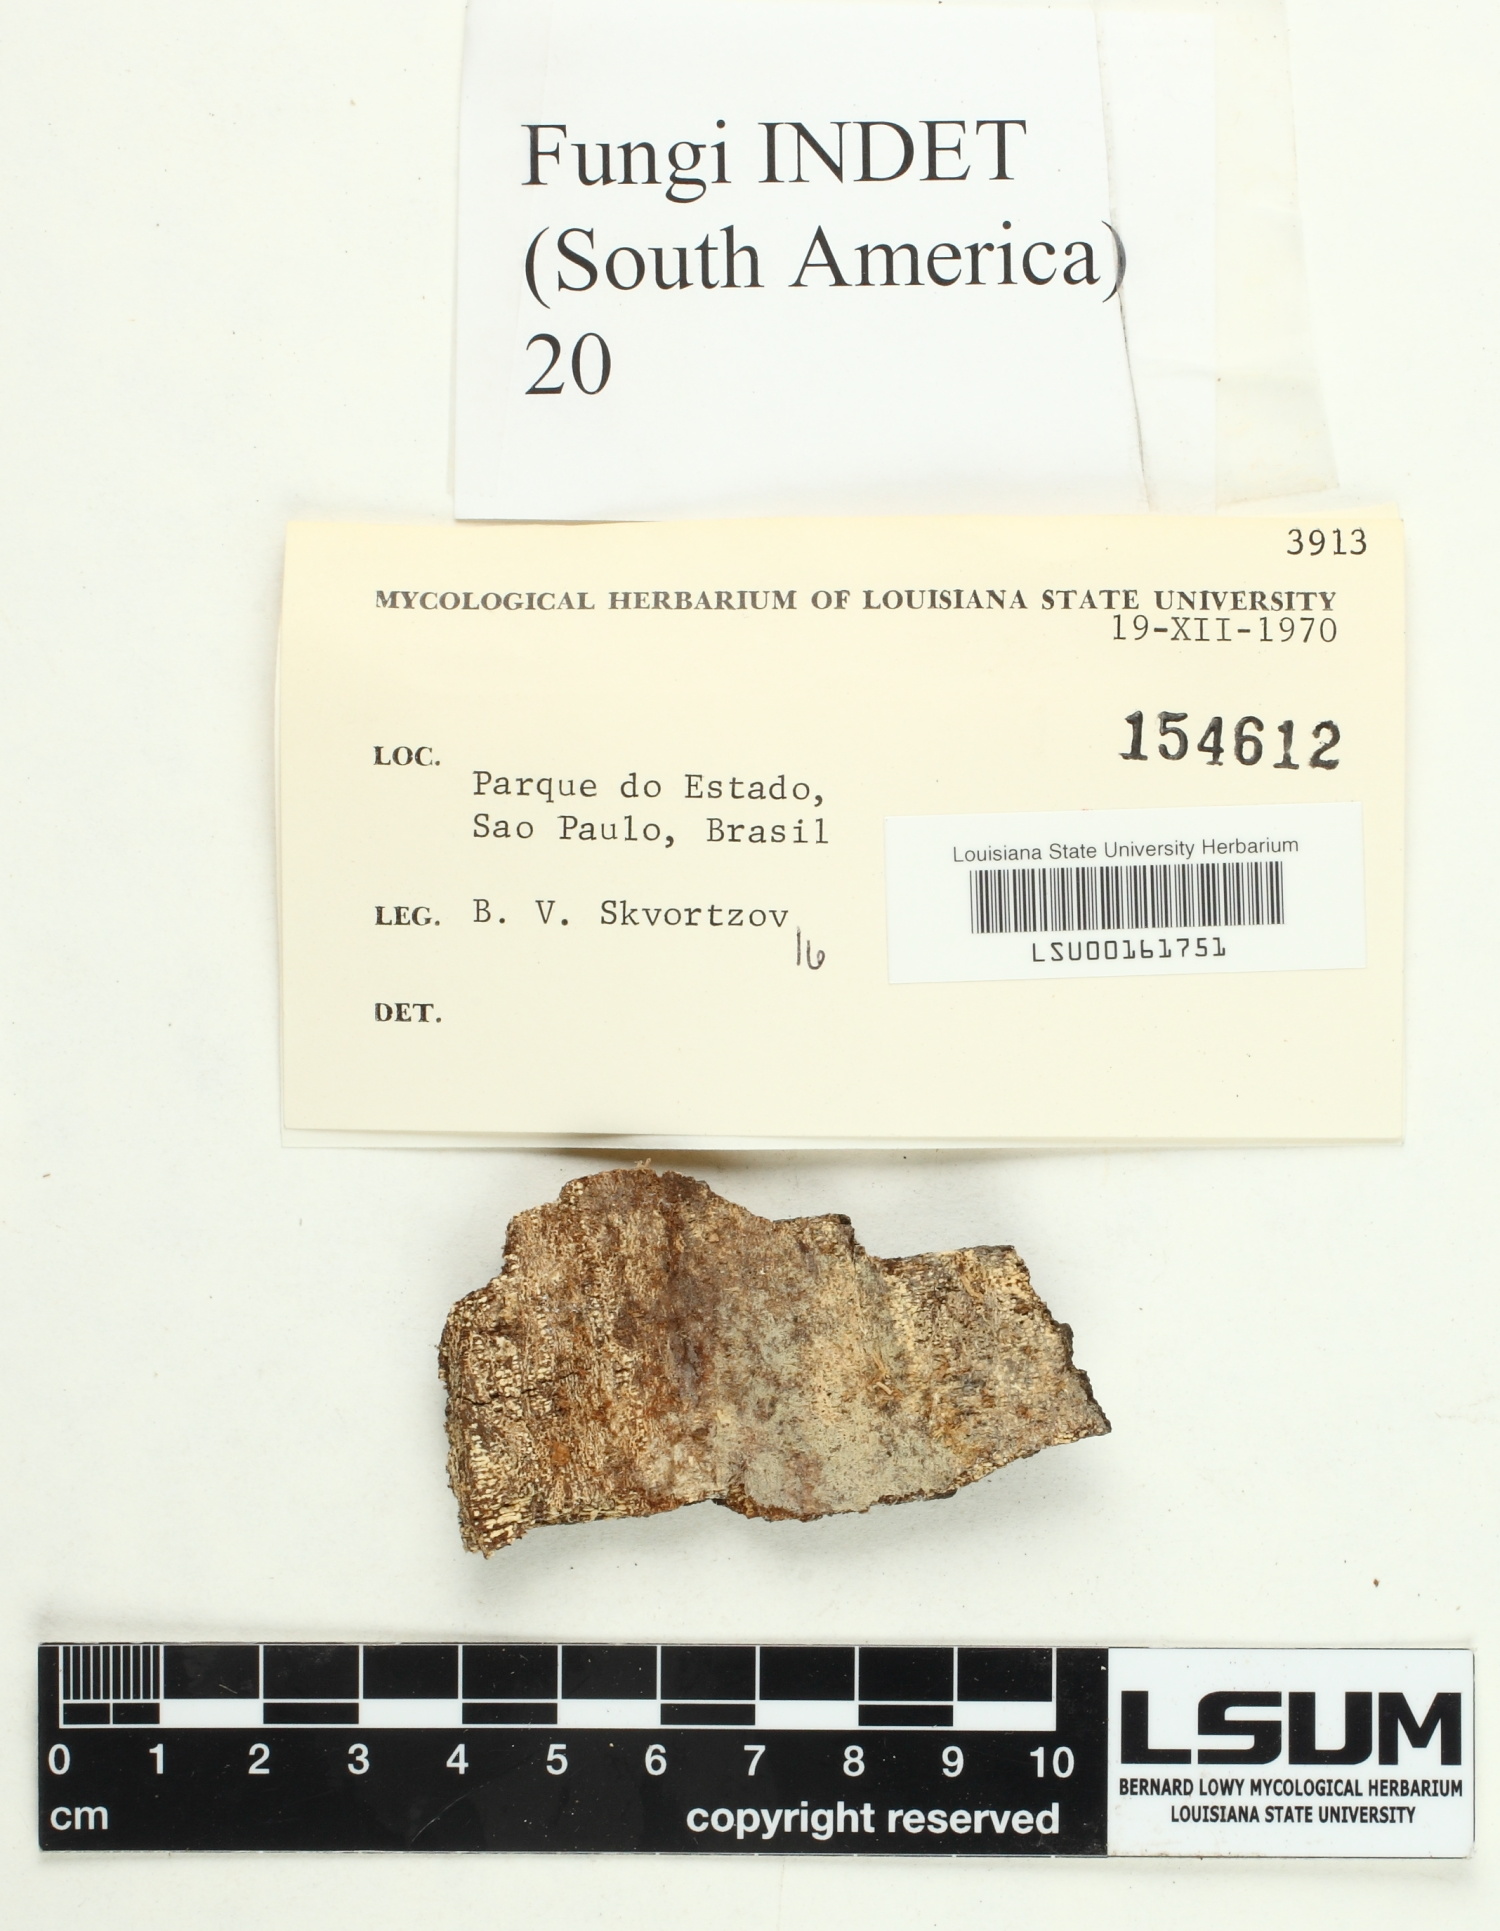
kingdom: Fungi
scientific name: Fungi
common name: Fungi
